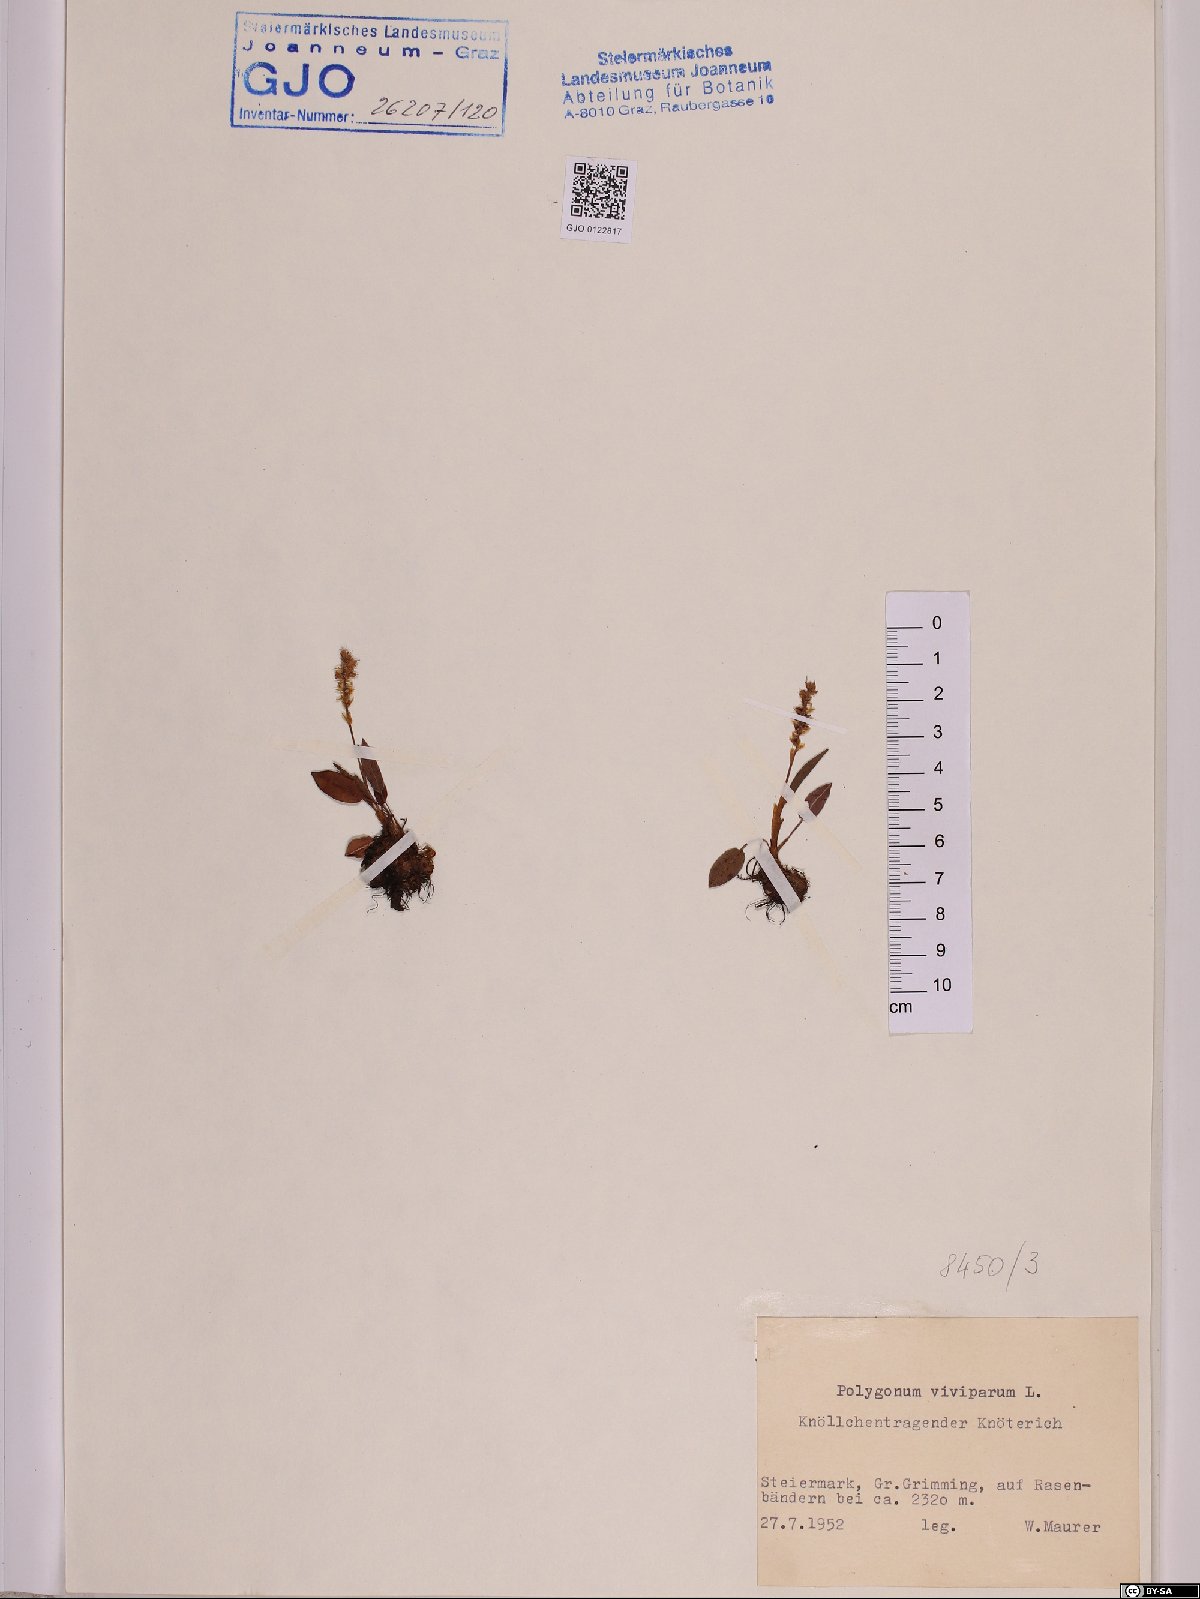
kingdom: Plantae
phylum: Tracheophyta
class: Magnoliopsida
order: Caryophyllales
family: Polygonaceae
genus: Bistorta
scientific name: Bistorta vivipara
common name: Alpine bistort
